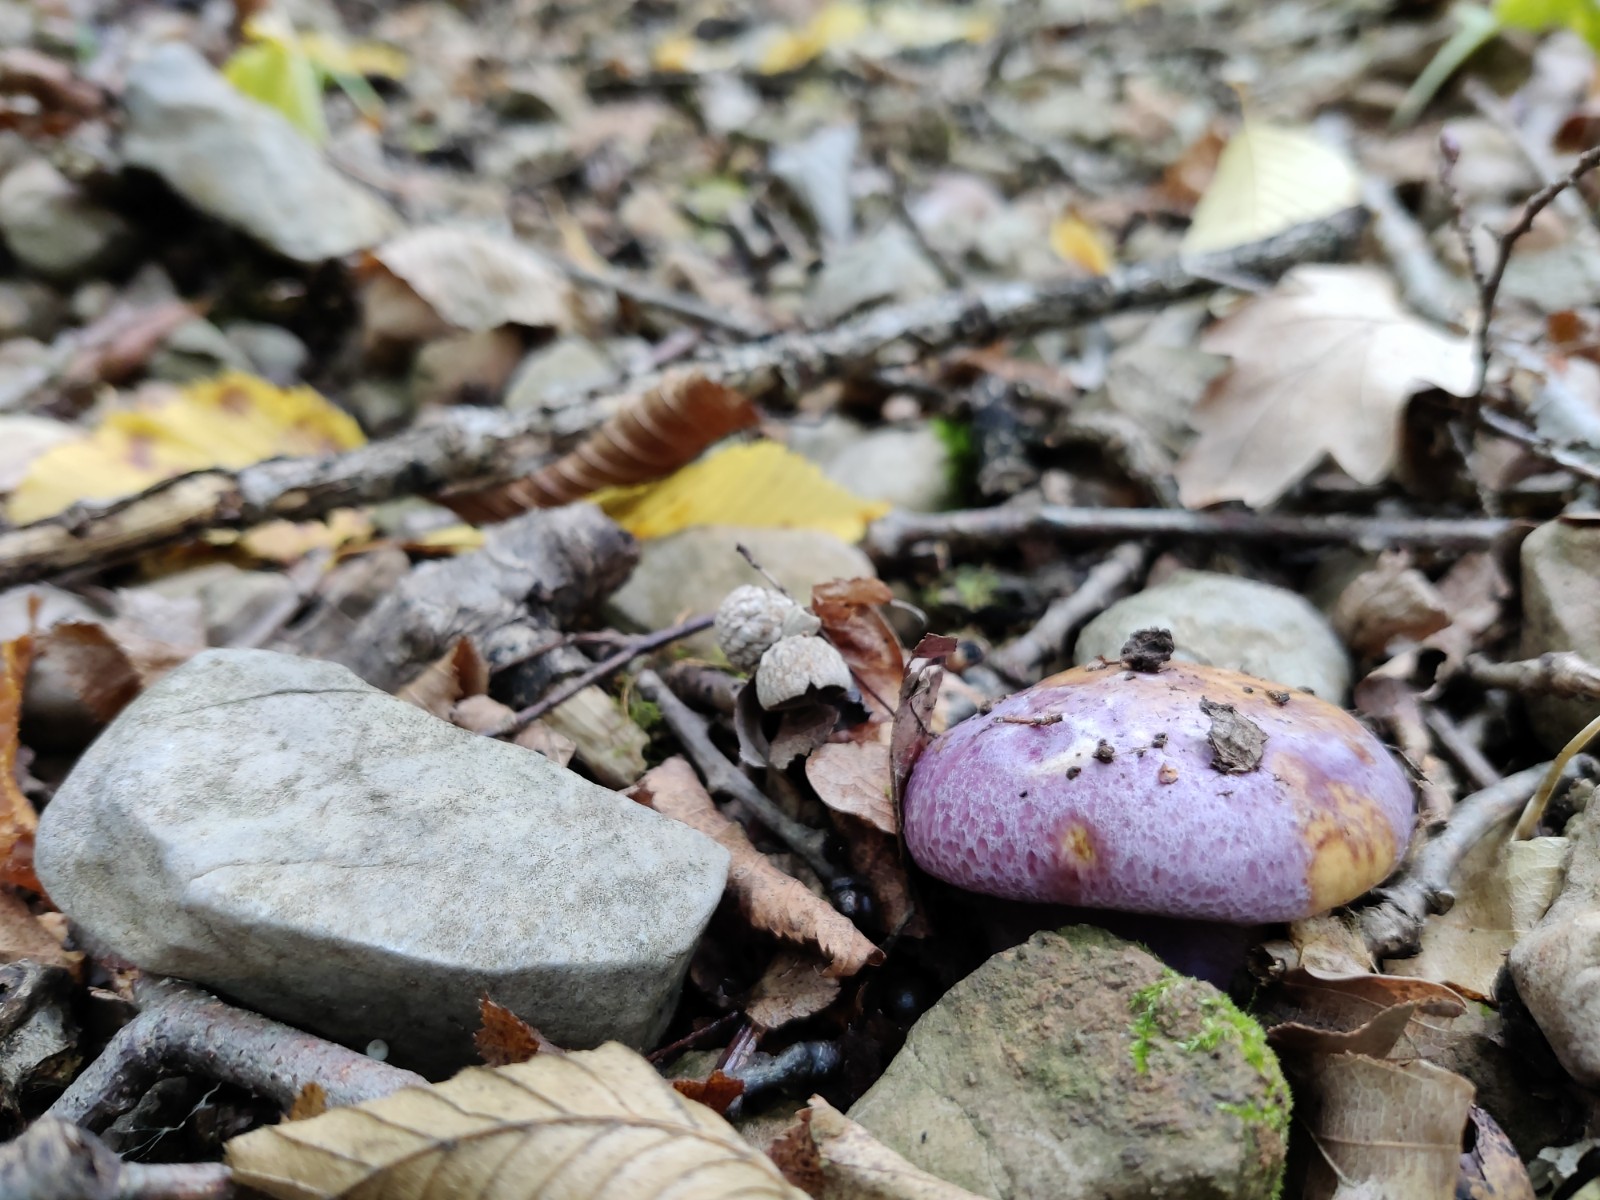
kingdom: Fungi
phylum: Basidiomycota
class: Agaricomycetes
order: Agaricales
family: Cortinariaceae
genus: Calonarius
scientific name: Calonarius sodagnitus
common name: violblå slørhat
